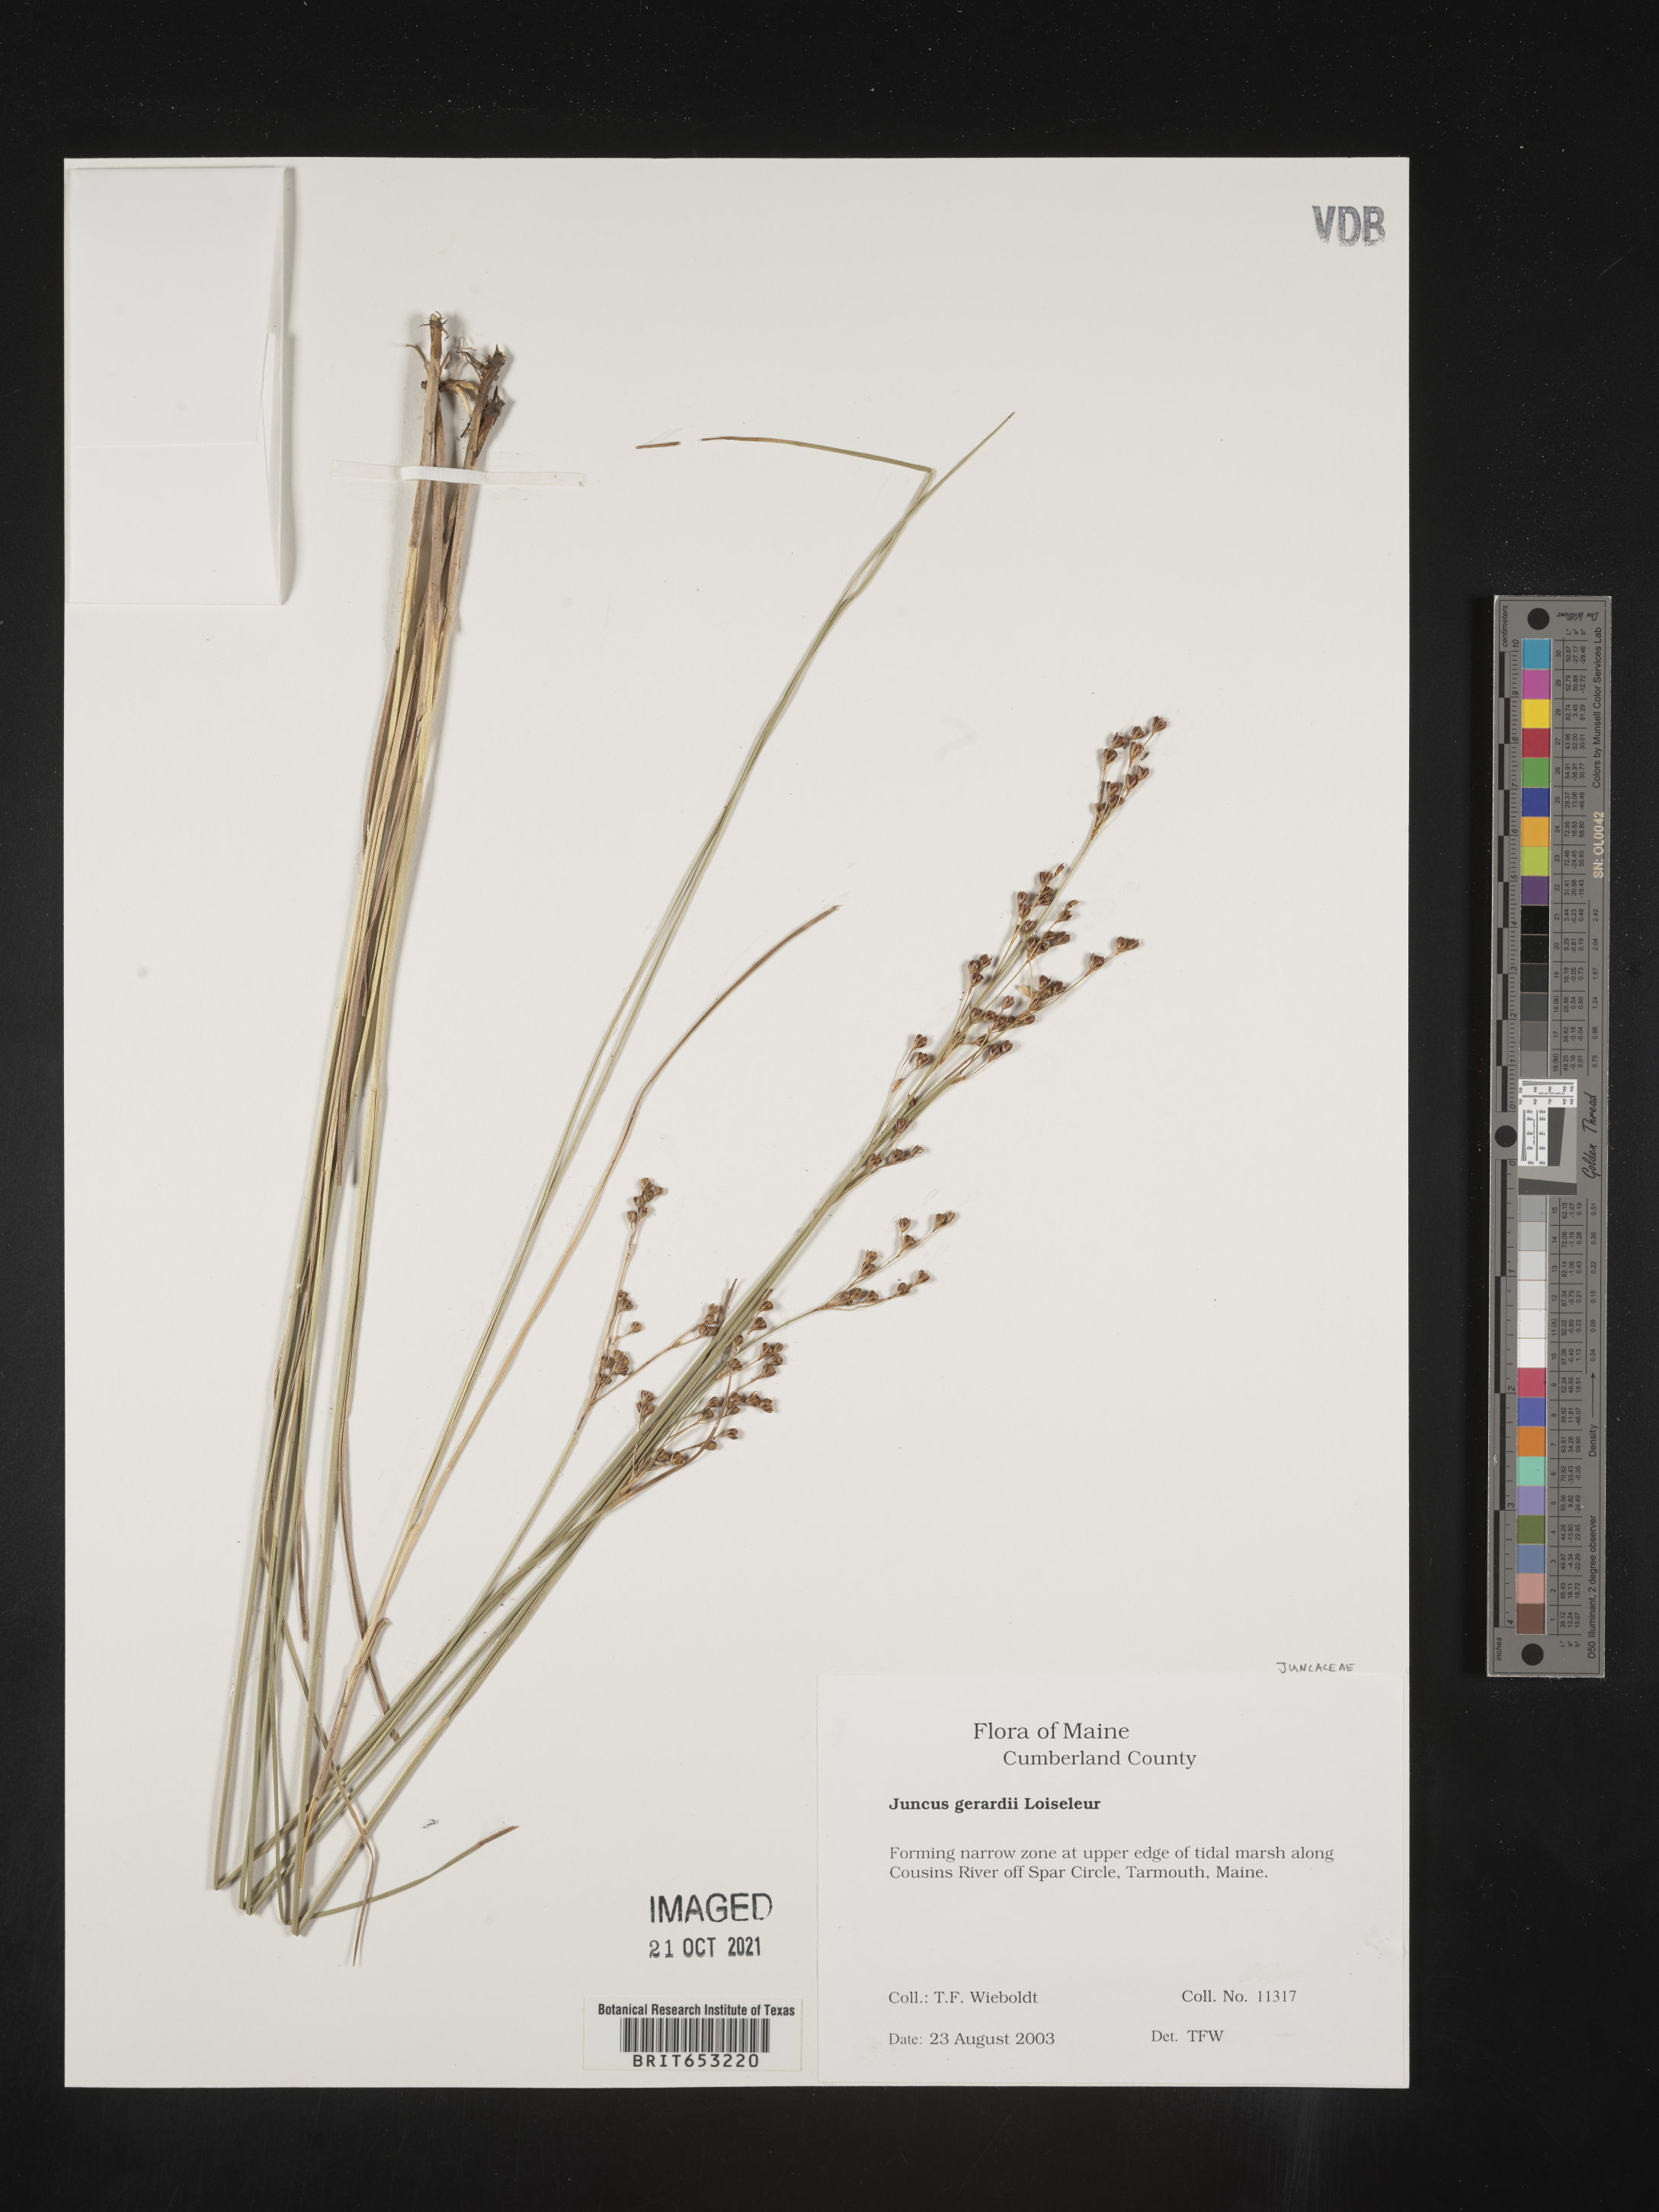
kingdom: Plantae
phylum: Tracheophyta
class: Liliopsida
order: Poales
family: Juncaceae
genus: Juncus
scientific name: Juncus gerardi
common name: Saltmarsh rush
